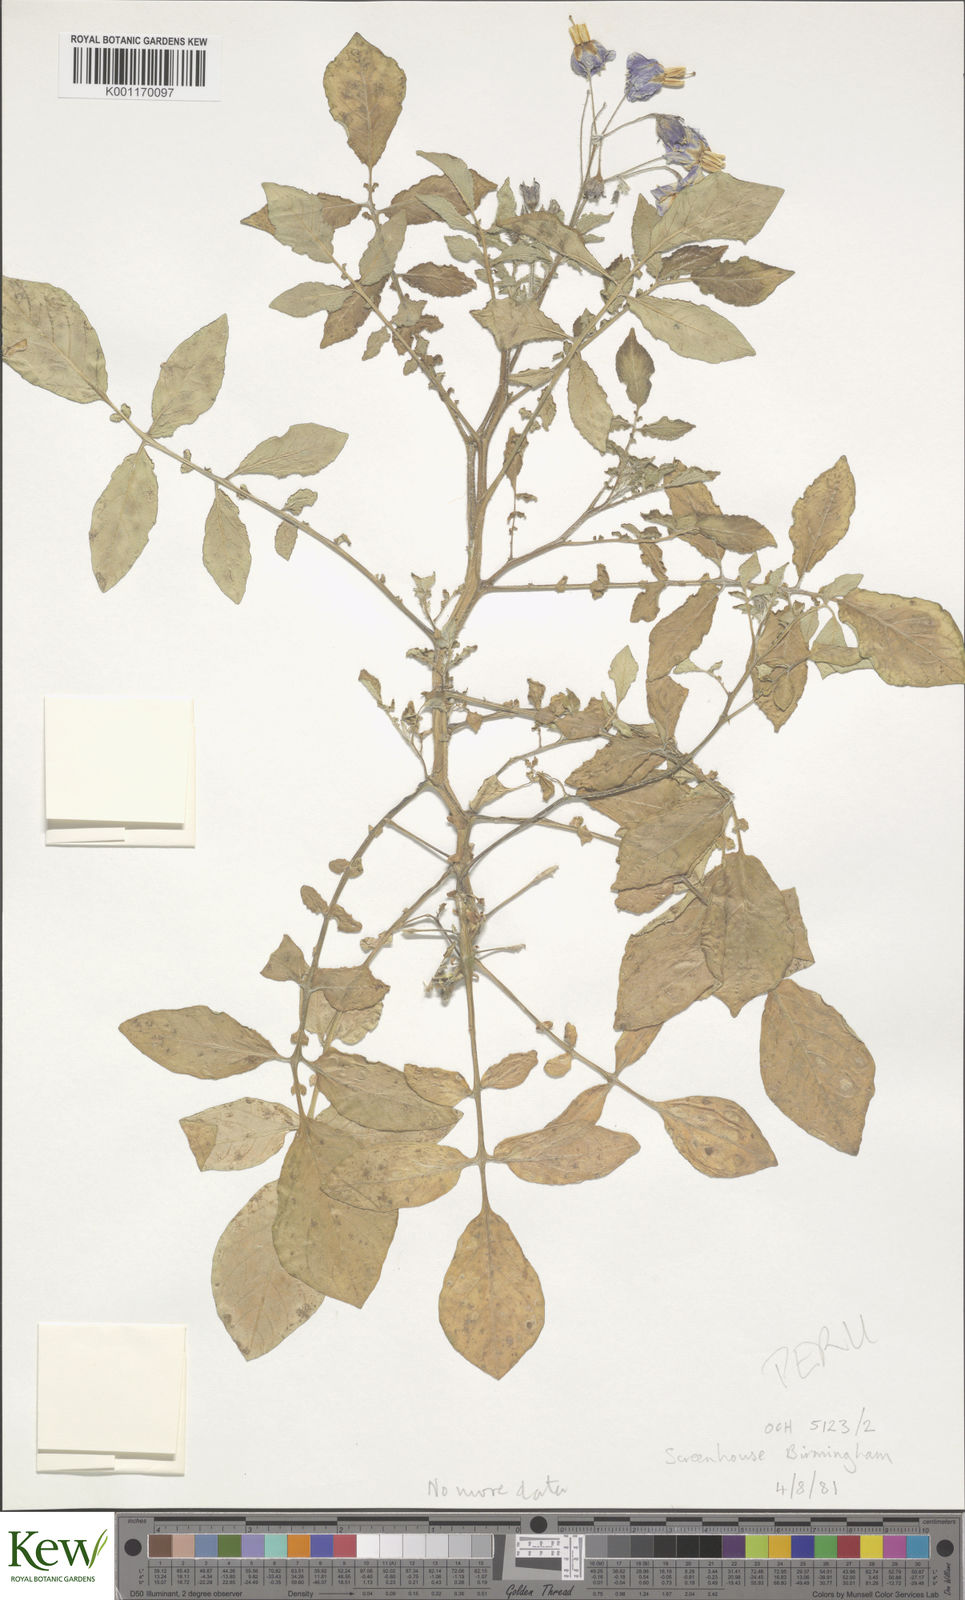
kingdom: Plantae
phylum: Tracheophyta
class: Magnoliopsida
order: Solanales
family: Solanaceae
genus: Solanum
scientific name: Solanum brevicaule
